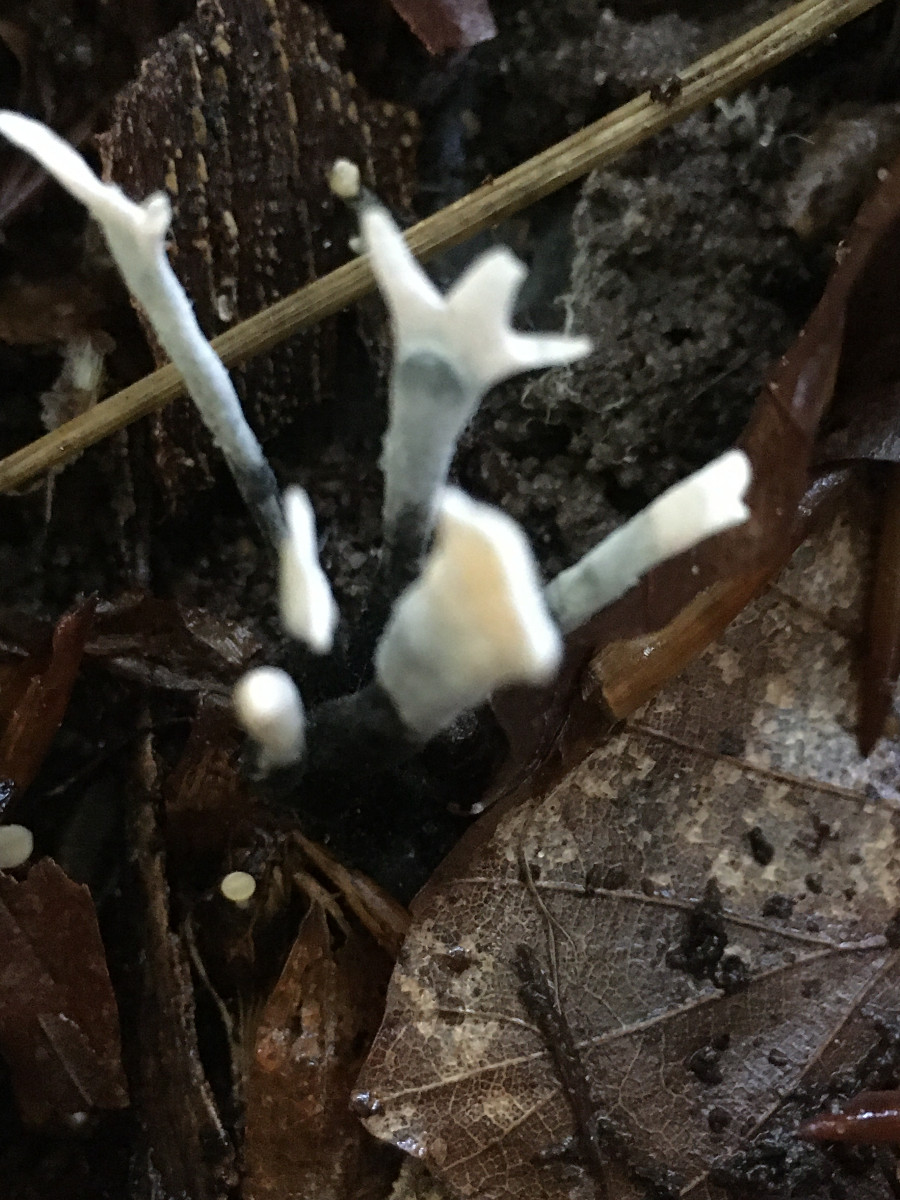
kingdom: Fungi
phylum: Ascomycota
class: Sordariomycetes
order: Xylariales
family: Xylariaceae
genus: Xylaria
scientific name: Xylaria hypoxylon
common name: grenet stødsvamp
